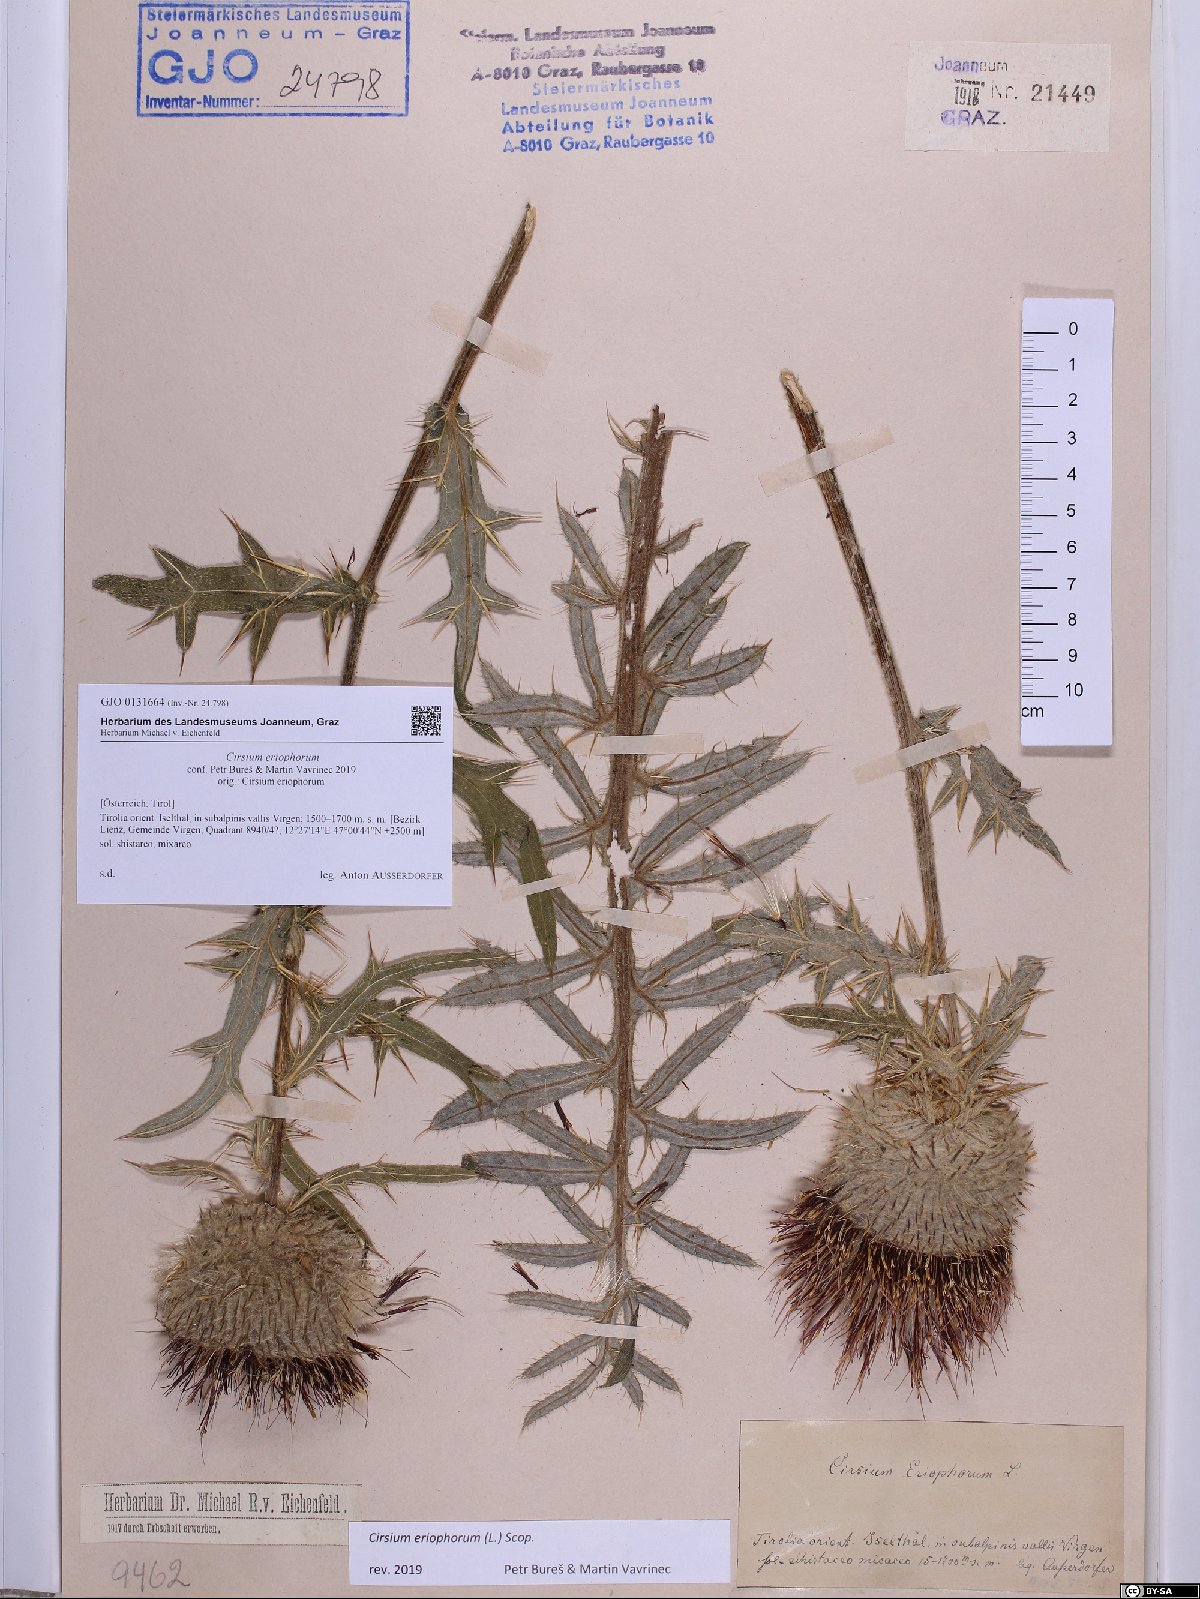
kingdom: Plantae
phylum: Tracheophyta
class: Magnoliopsida
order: Asterales
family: Asteraceae
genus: Lophiolepis
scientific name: Lophiolepis eriophora
